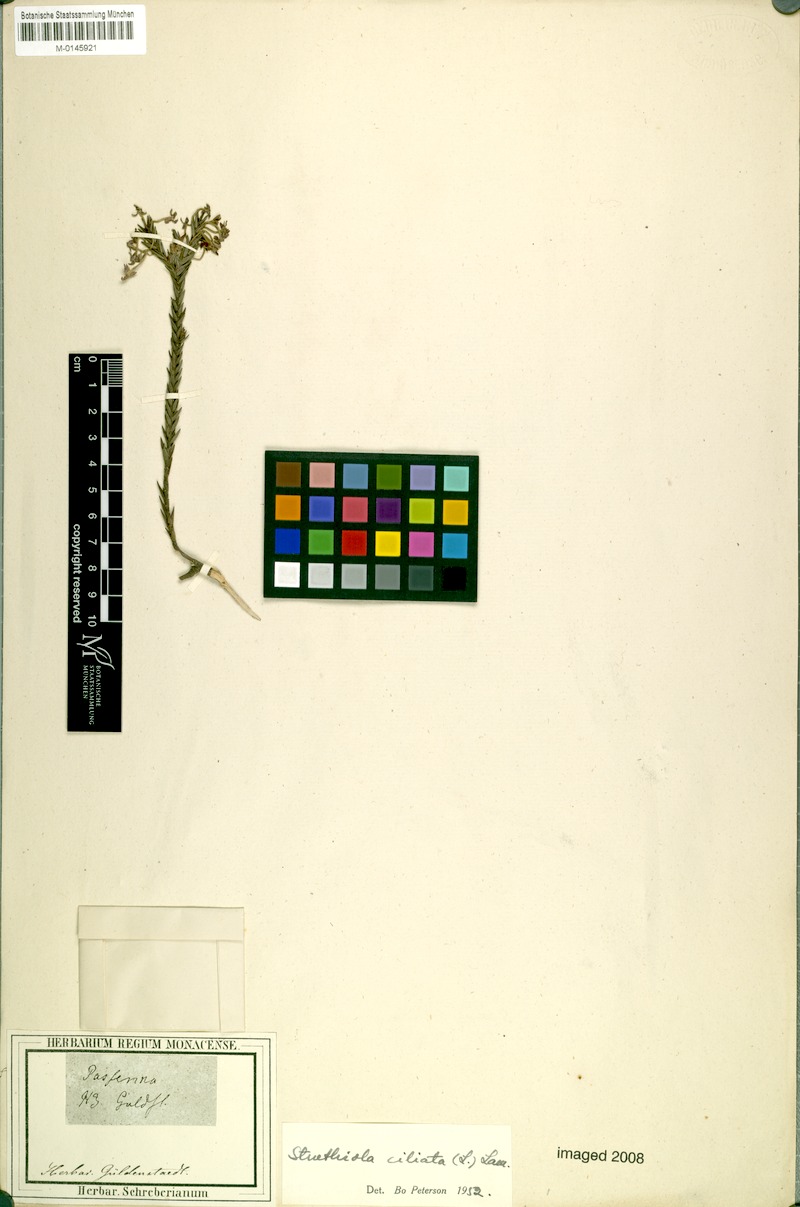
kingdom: Plantae
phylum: Tracheophyta
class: Magnoliopsida
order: Malvales
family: Thymelaeaceae
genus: Struthiola
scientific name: Struthiola ciliata
